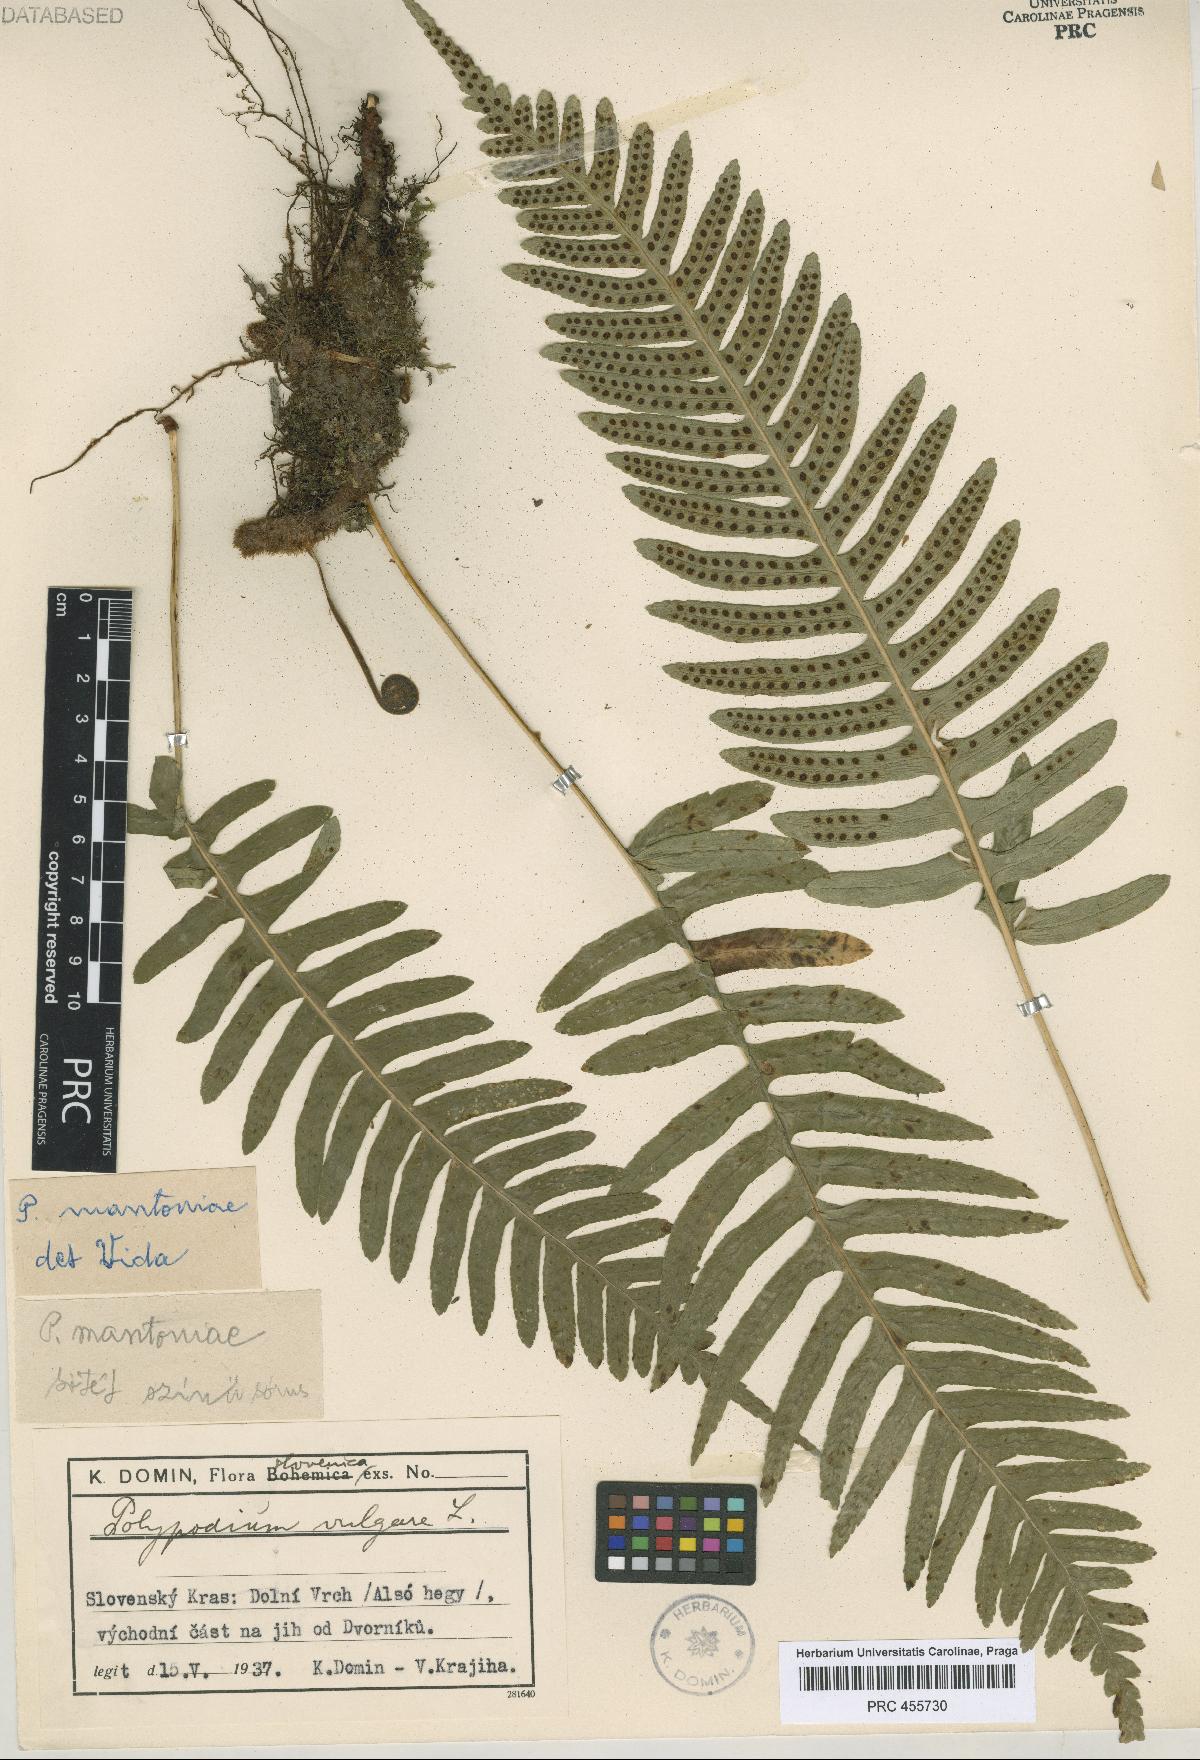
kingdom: Plantae
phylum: Tracheophyta
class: Polypodiopsida
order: Polypodiales
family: Polypodiaceae
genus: Polypodium
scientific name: Polypodium mantoniae
